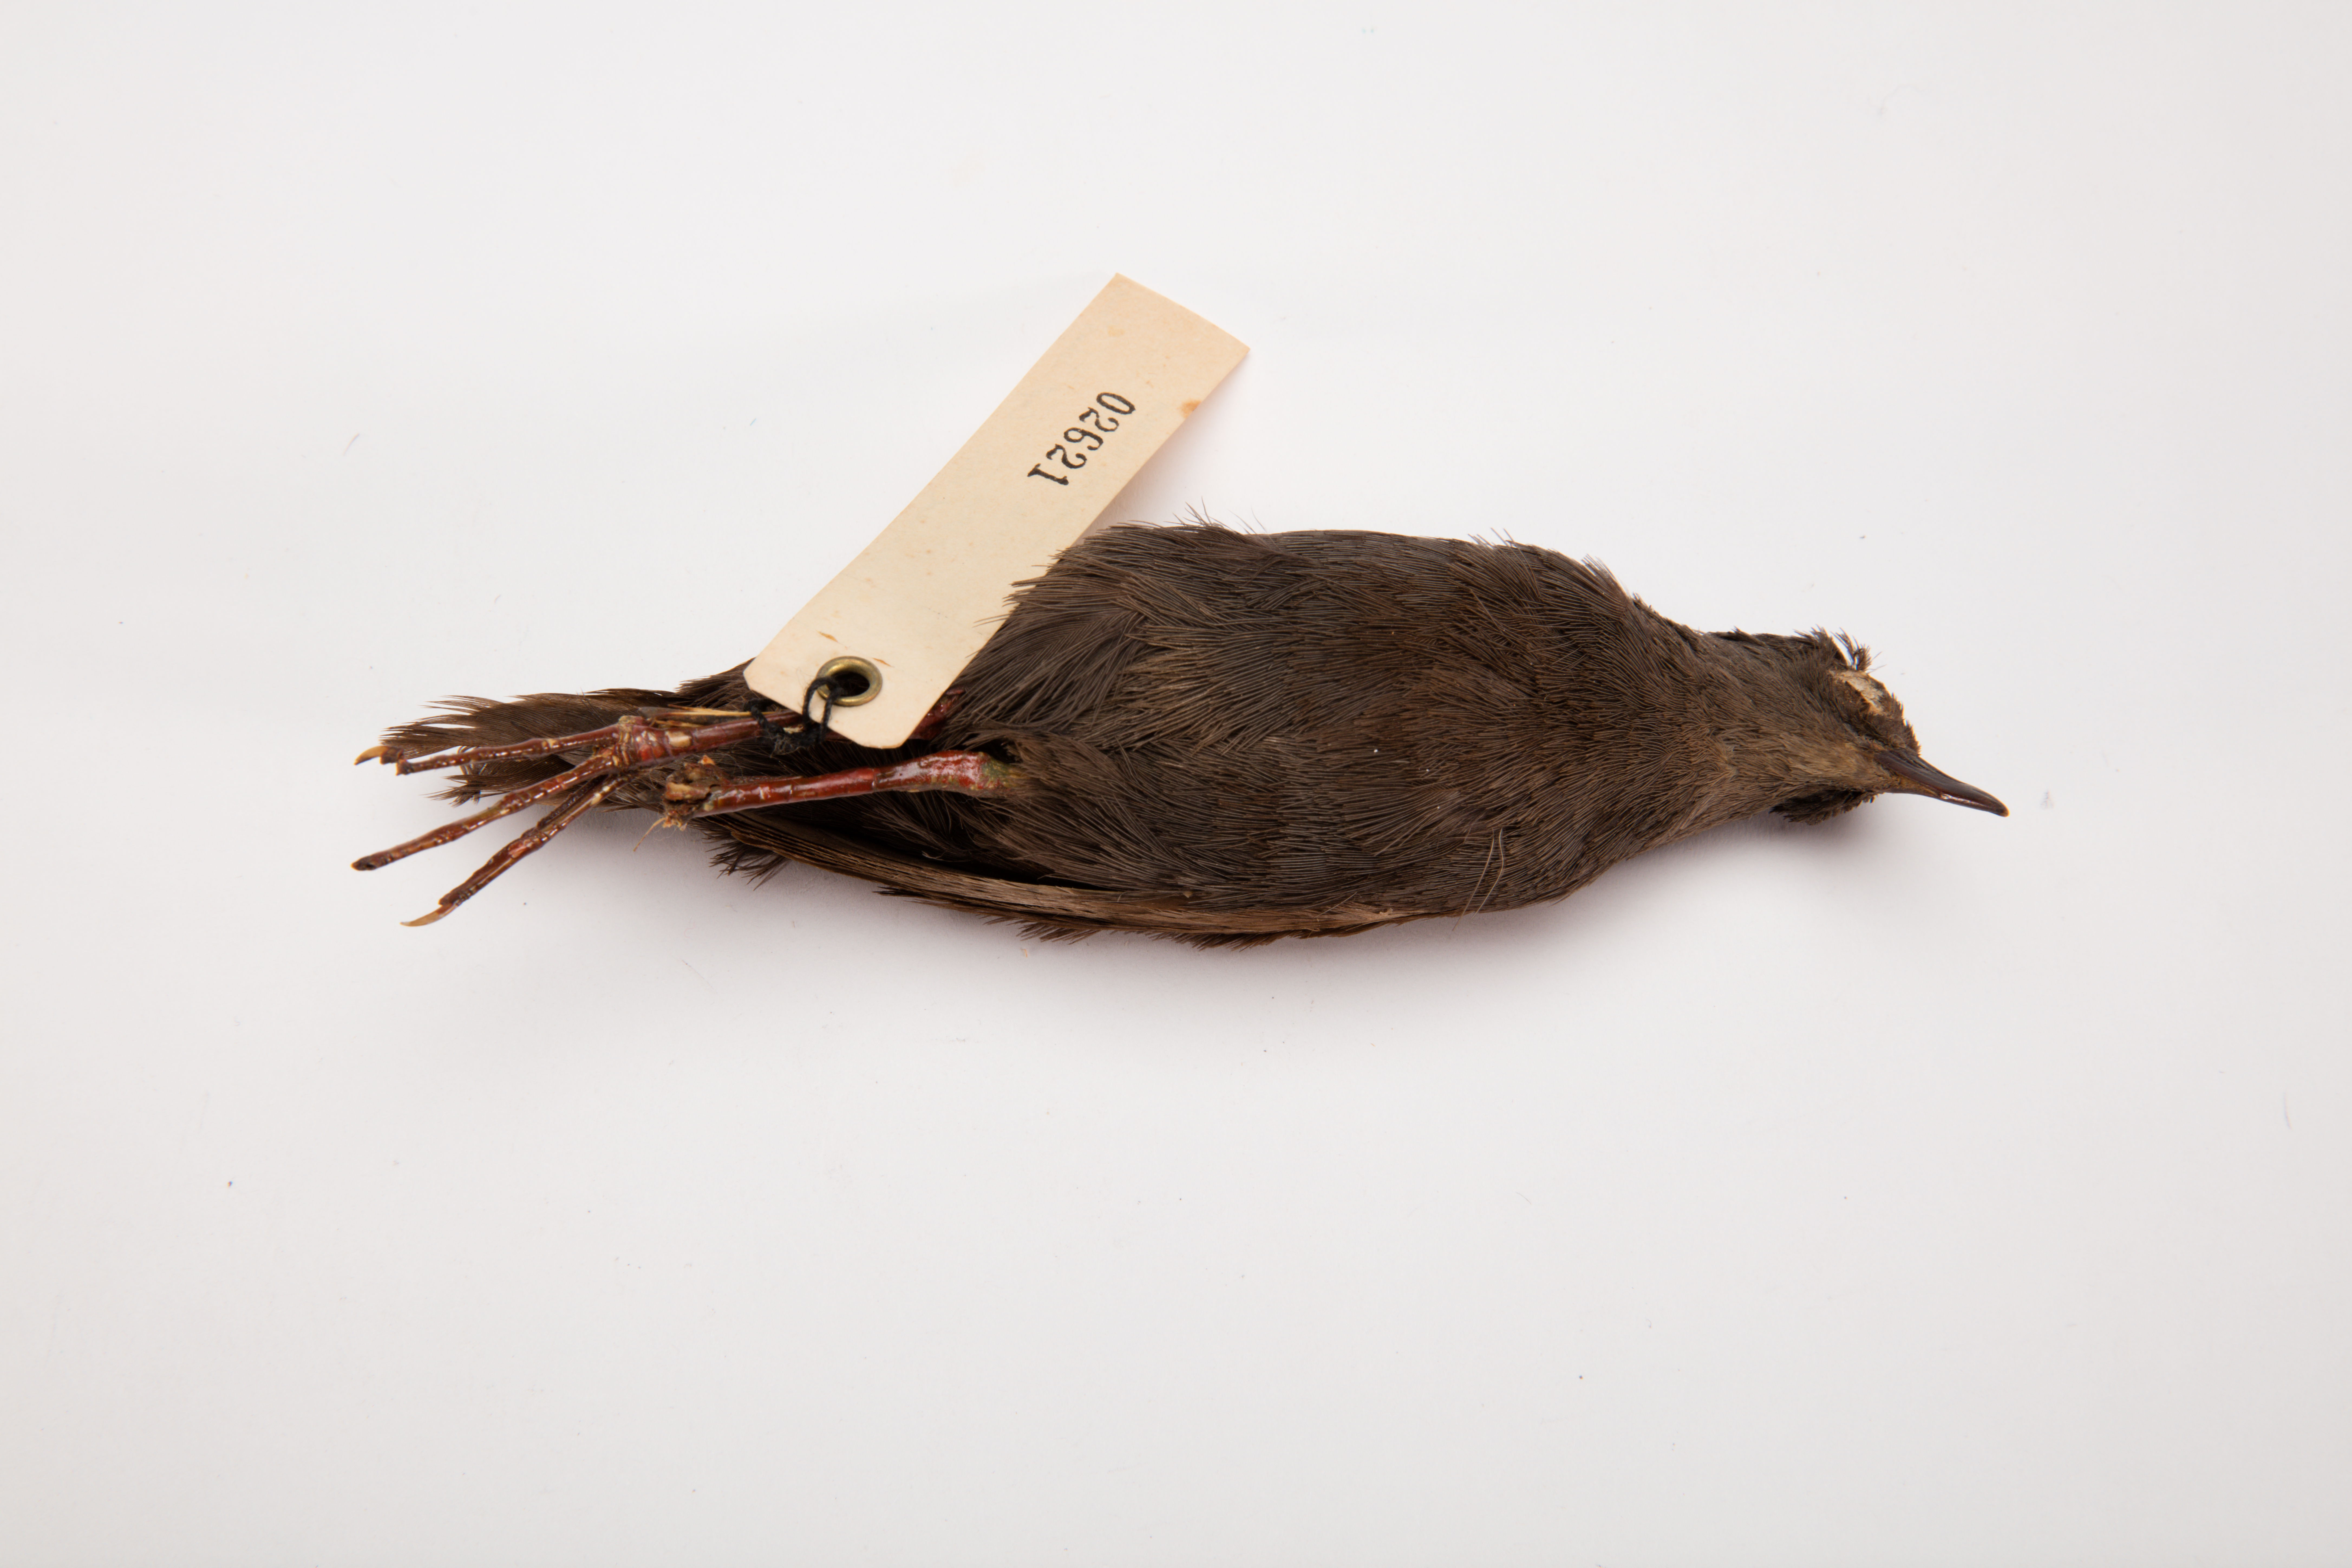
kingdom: Animalia
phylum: Chordata
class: Aves
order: Gruiformes
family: Rallidae
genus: Porzana
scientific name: Porzana tabuensis
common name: Spotless crake
